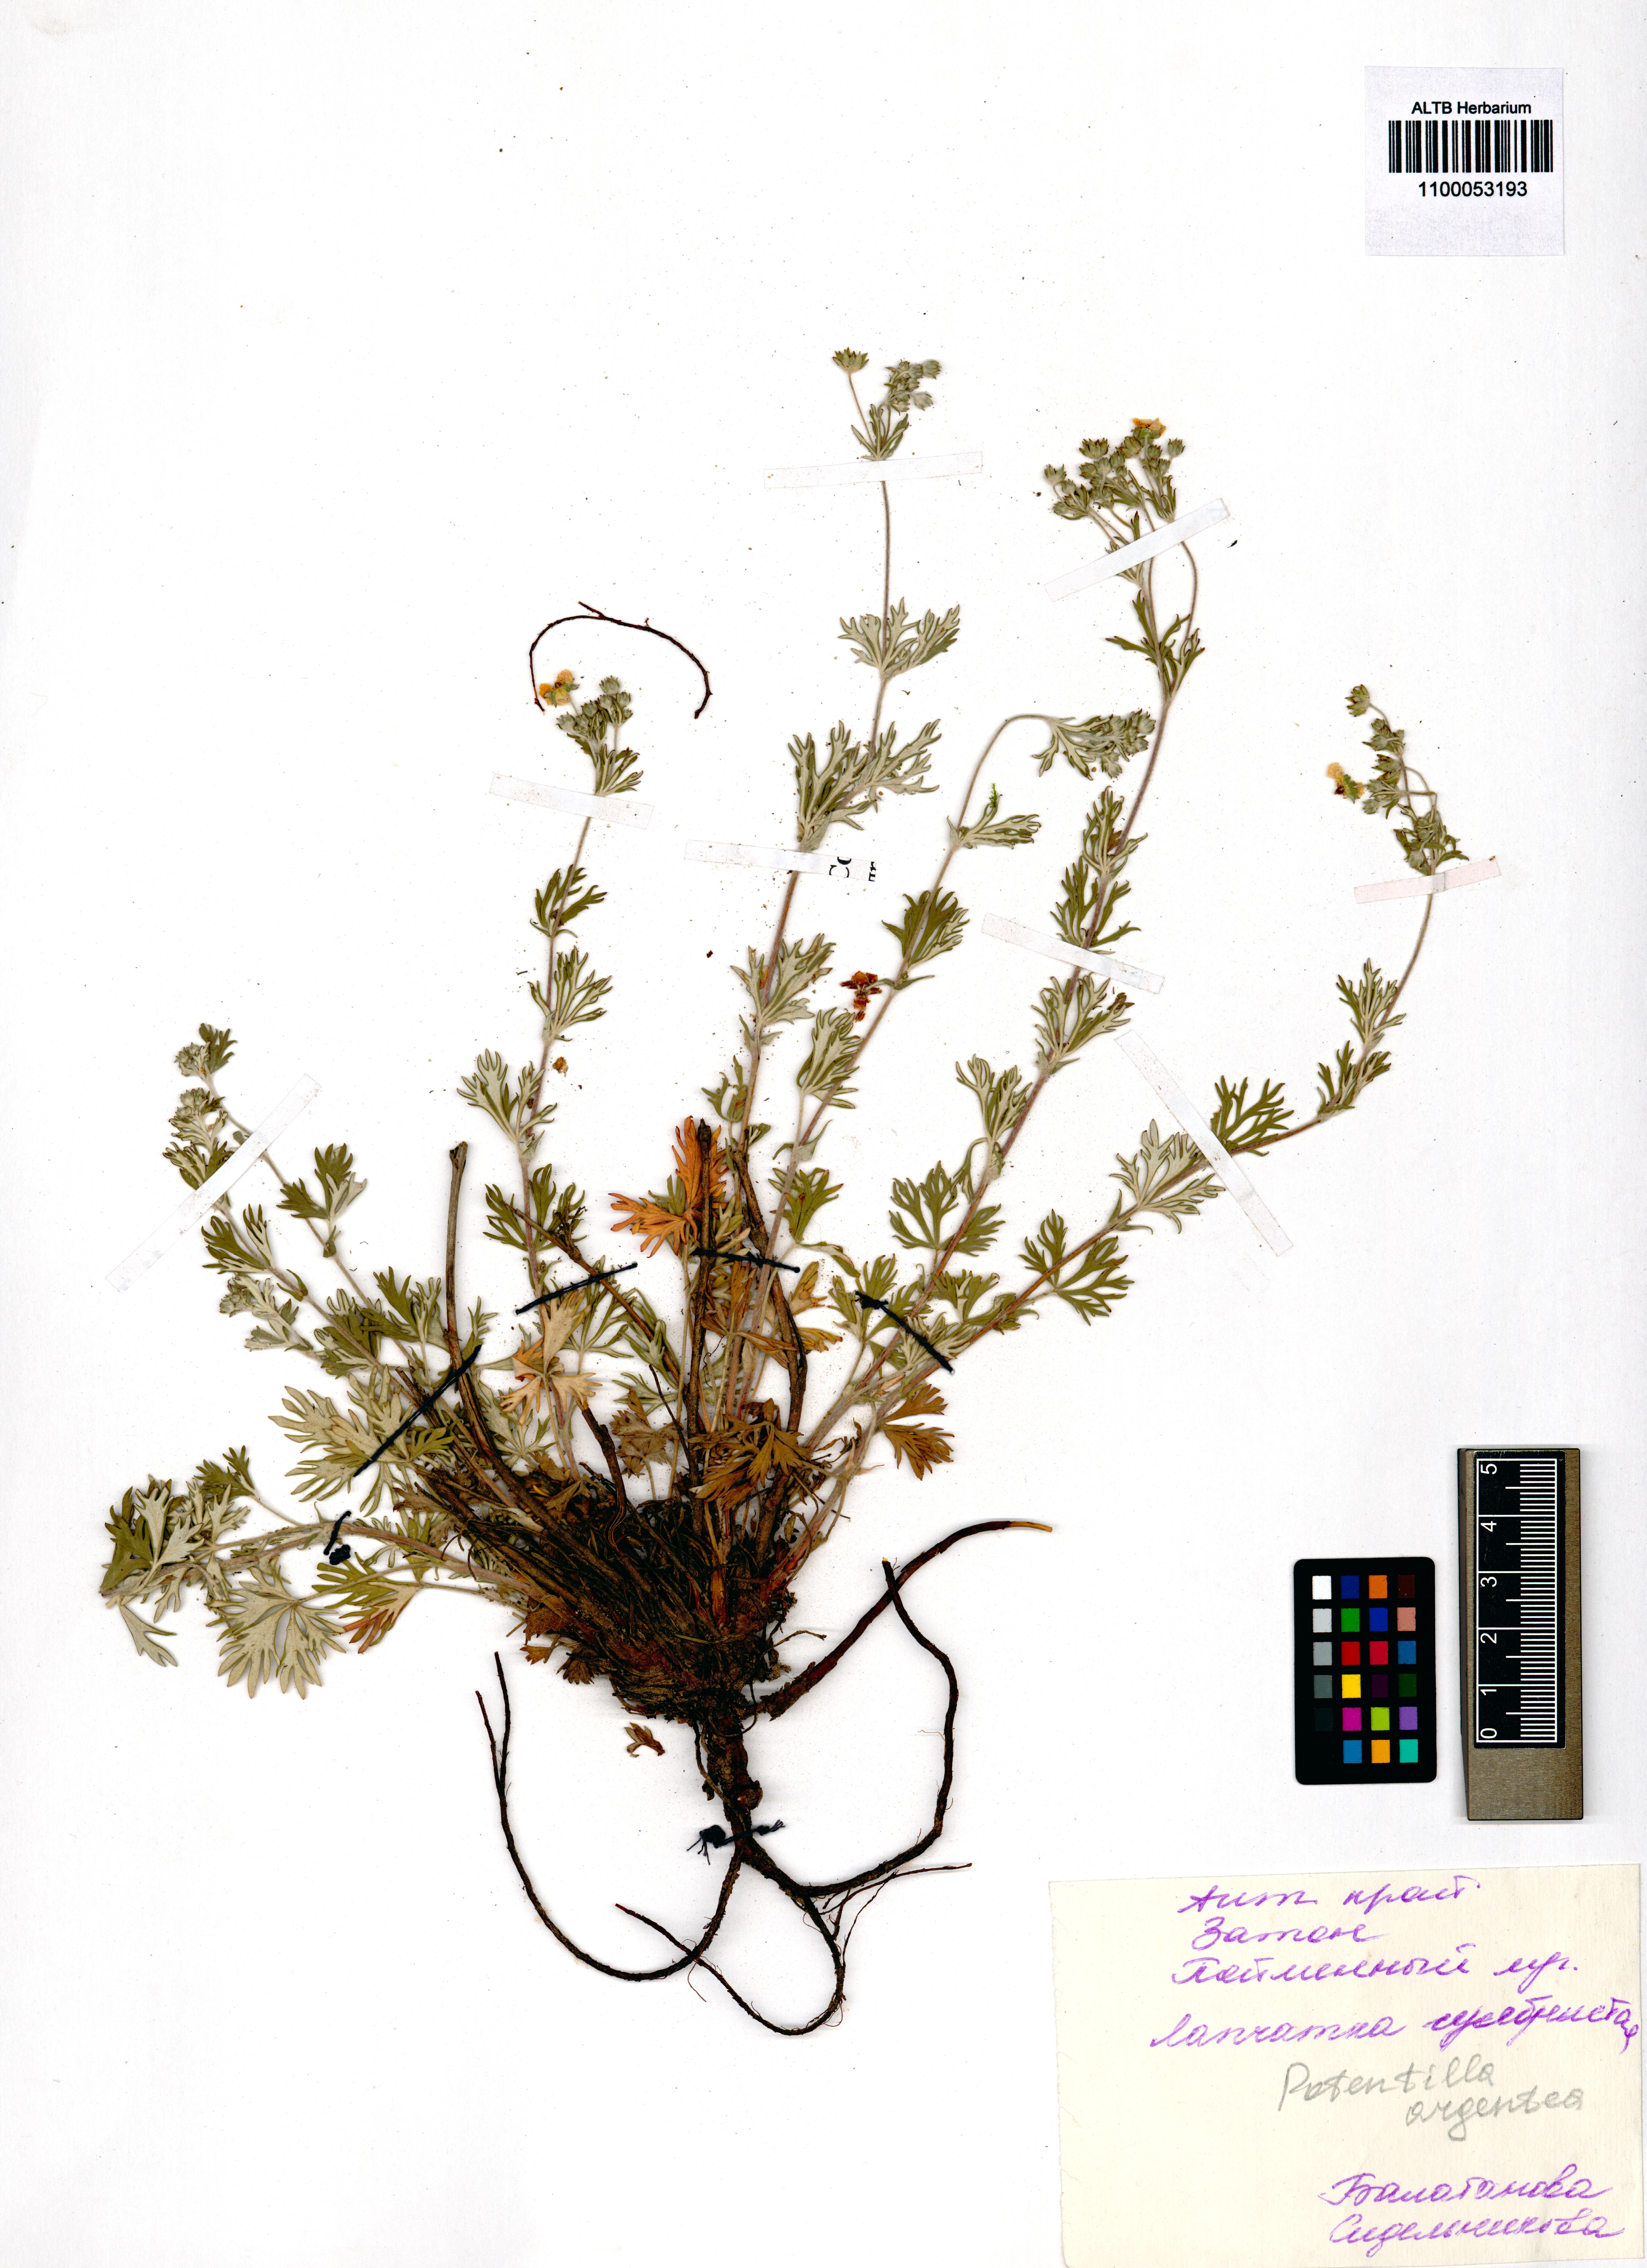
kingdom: Plantae
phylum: Tracheophyta
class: Magnoliopsida
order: Rosales
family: Rosaceae
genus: Potentilla
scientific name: Potentilla argentea
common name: Hoary cinquefoil
